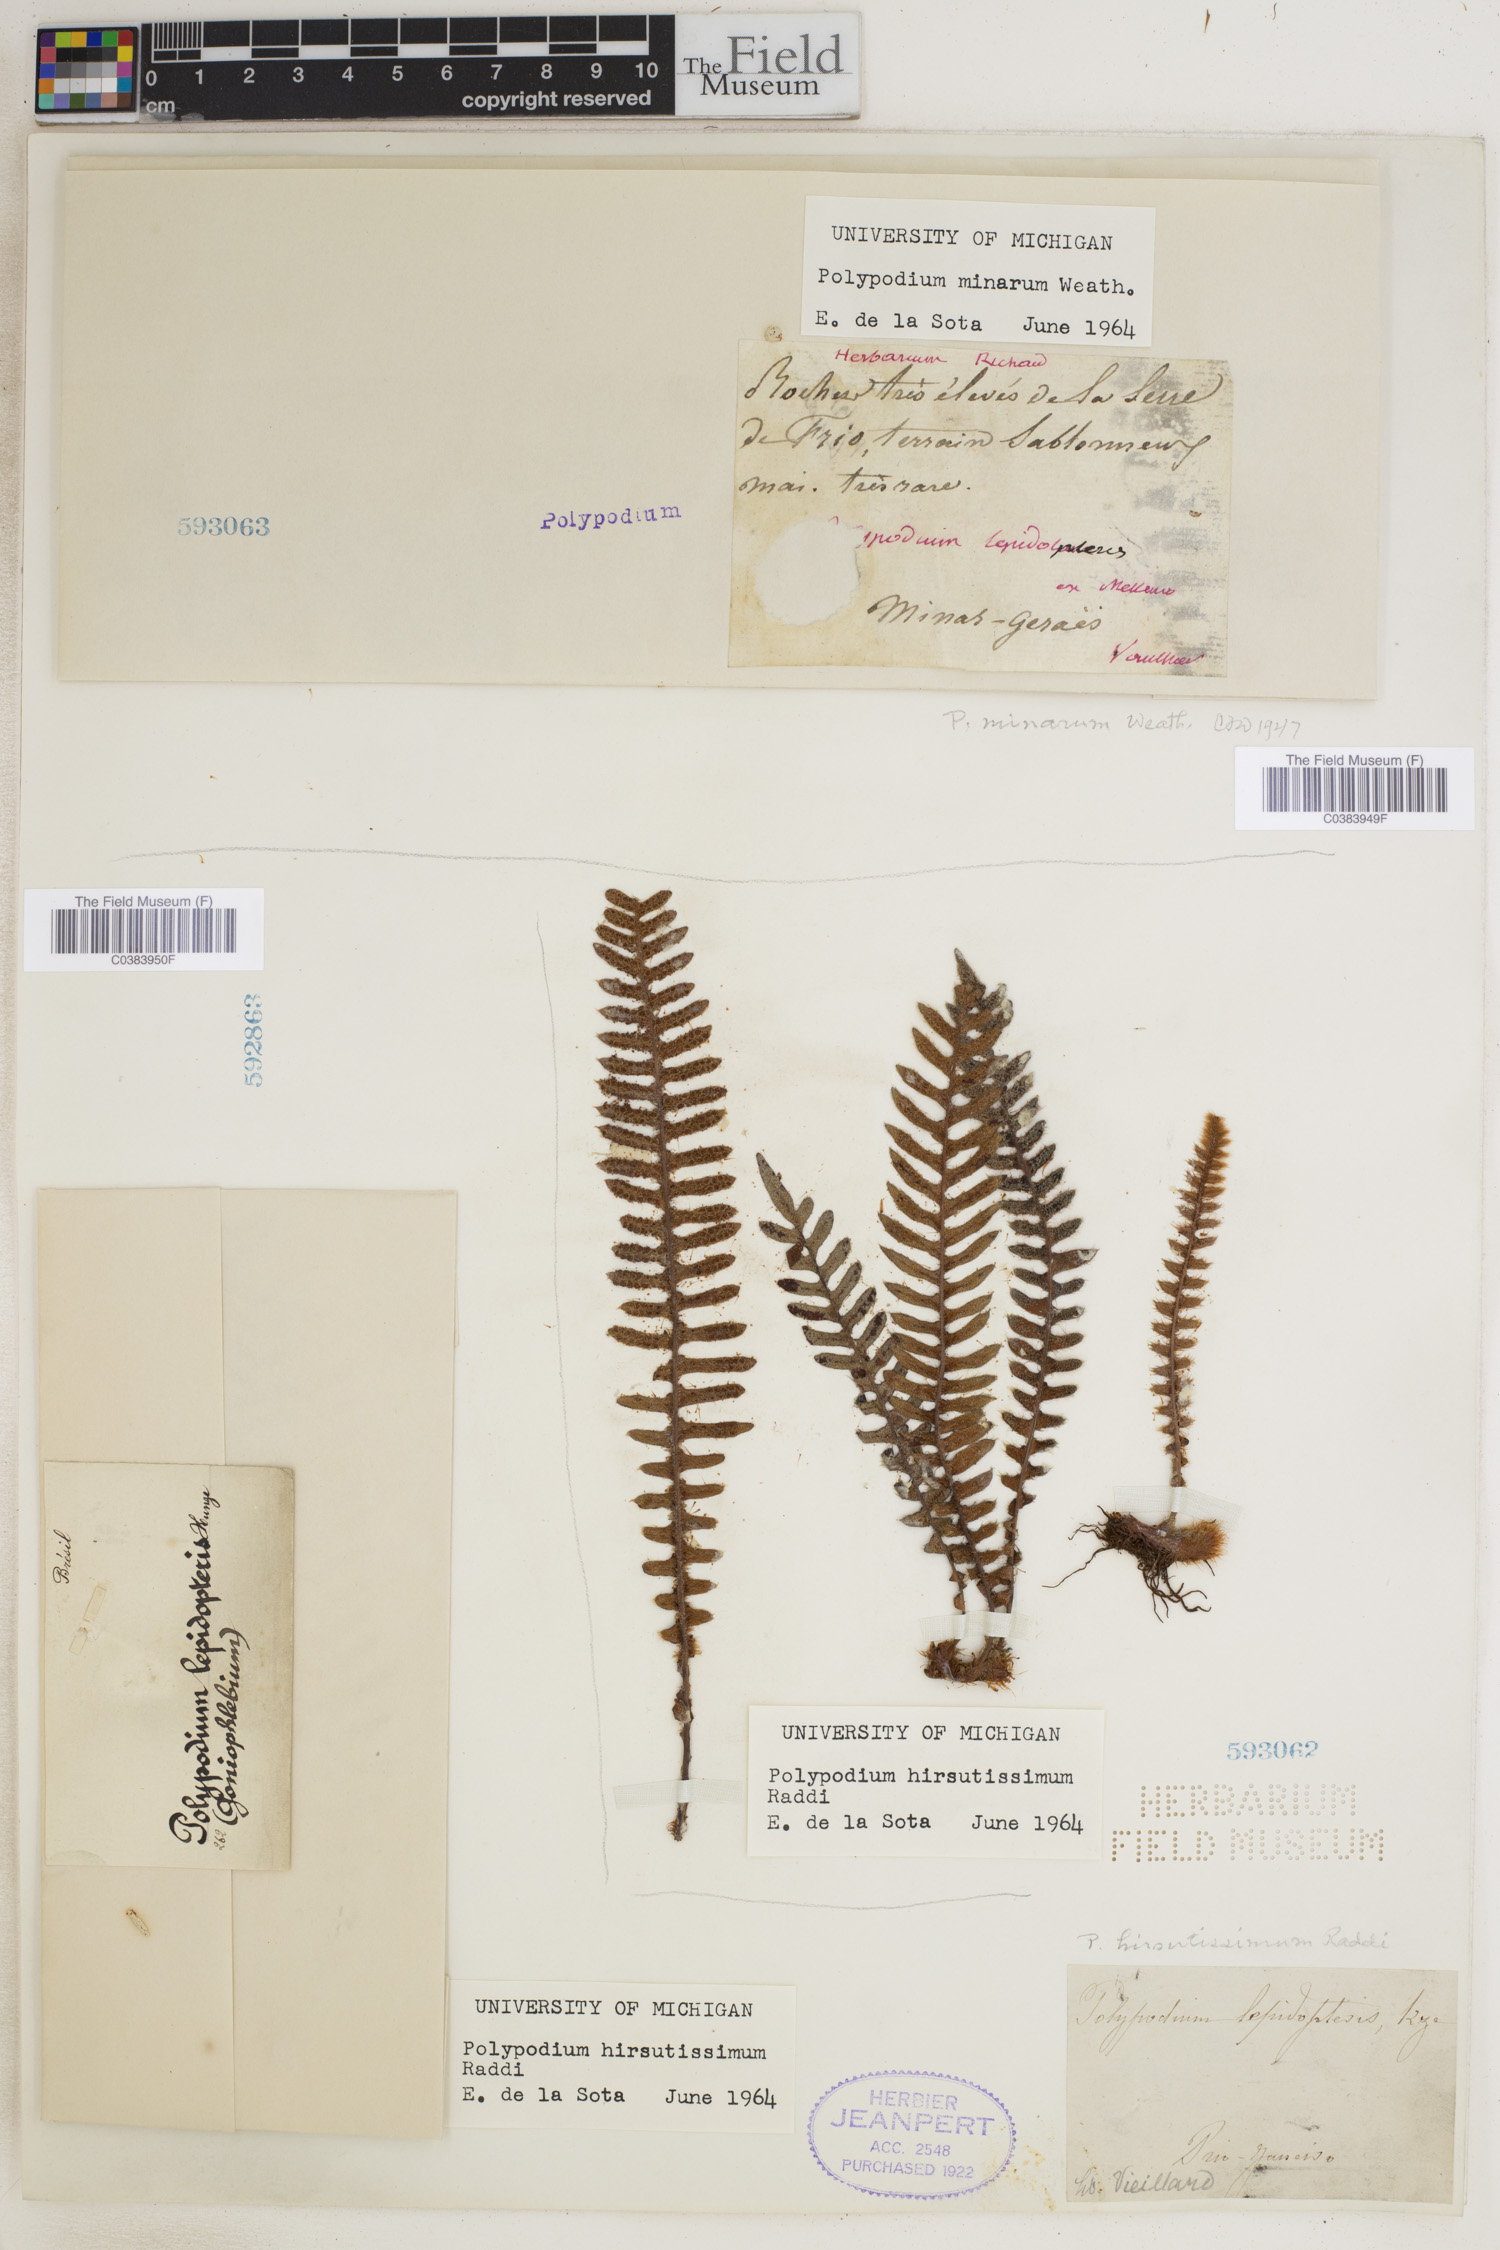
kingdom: Plantae
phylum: Tracheophyta
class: Polypodiopsida
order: Polypodiales
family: Polypodiaceae
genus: Pleopeltis
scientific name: Pleopeltis hirsutissima
